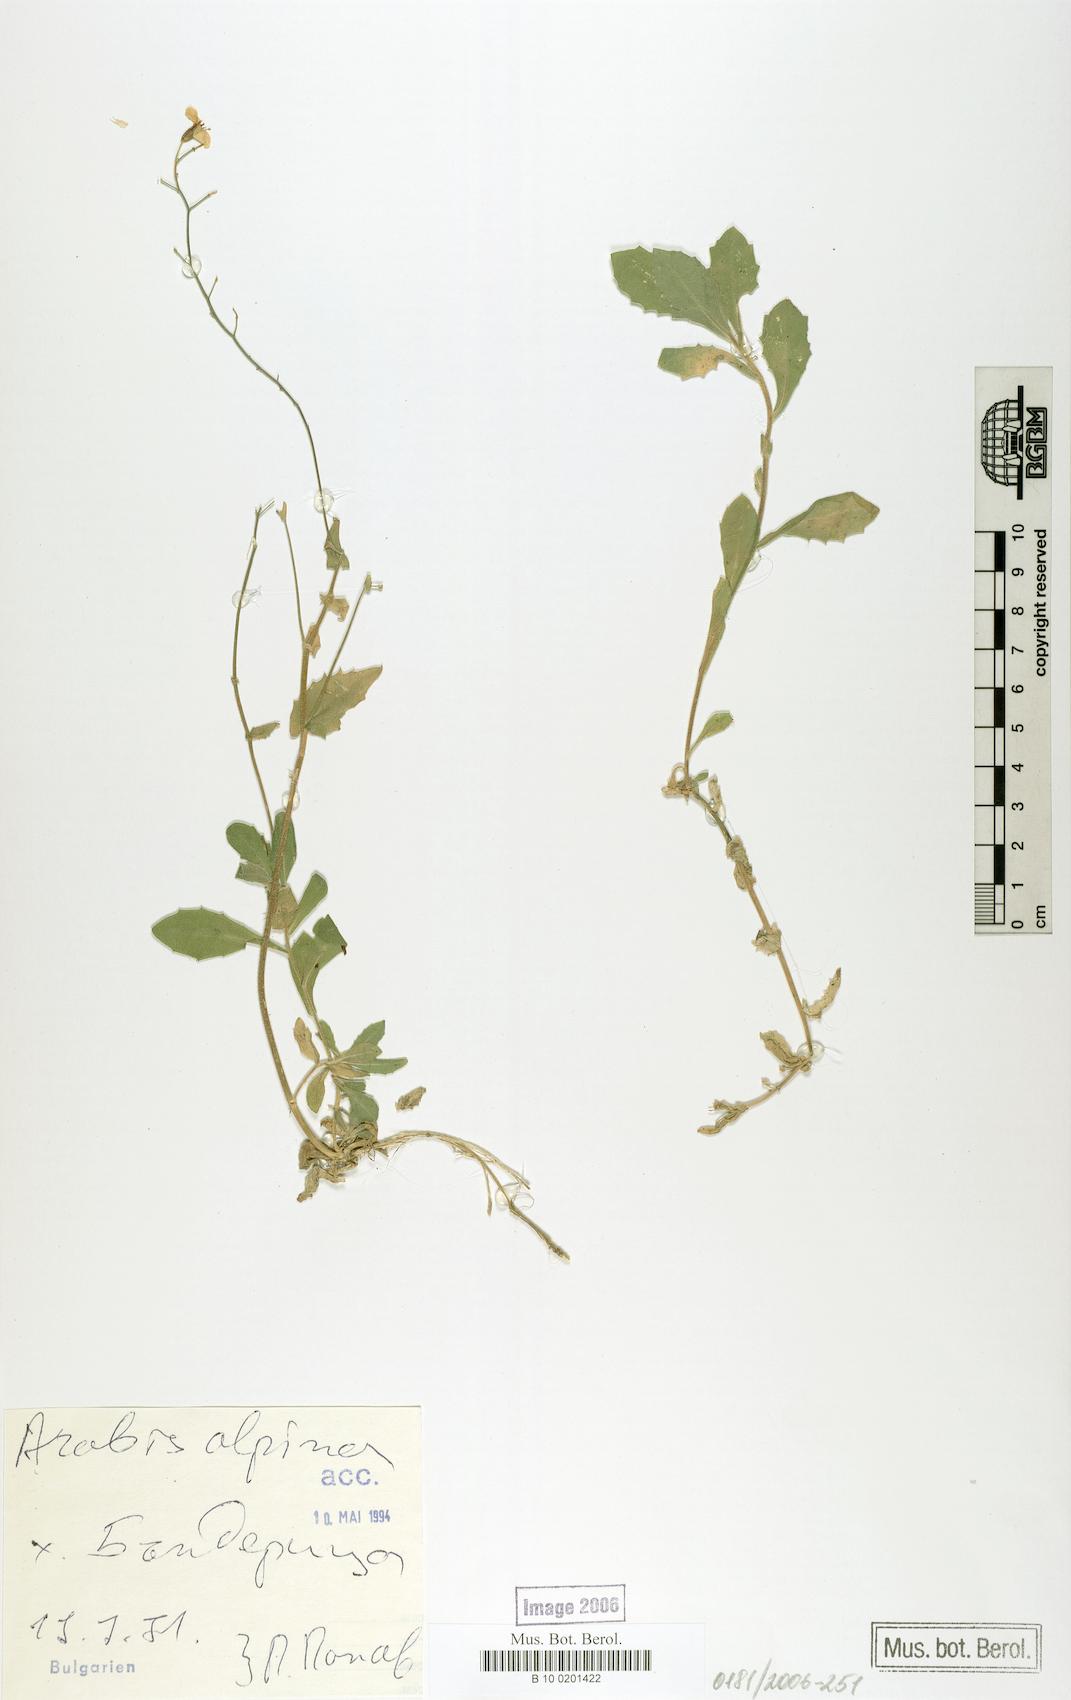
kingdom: Plantae
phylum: Tracheophyta
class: Magnoliopsida
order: Brassicales
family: Brassicaceae
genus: Arabis
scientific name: Arabis alpina
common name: Alpine rock-cress
